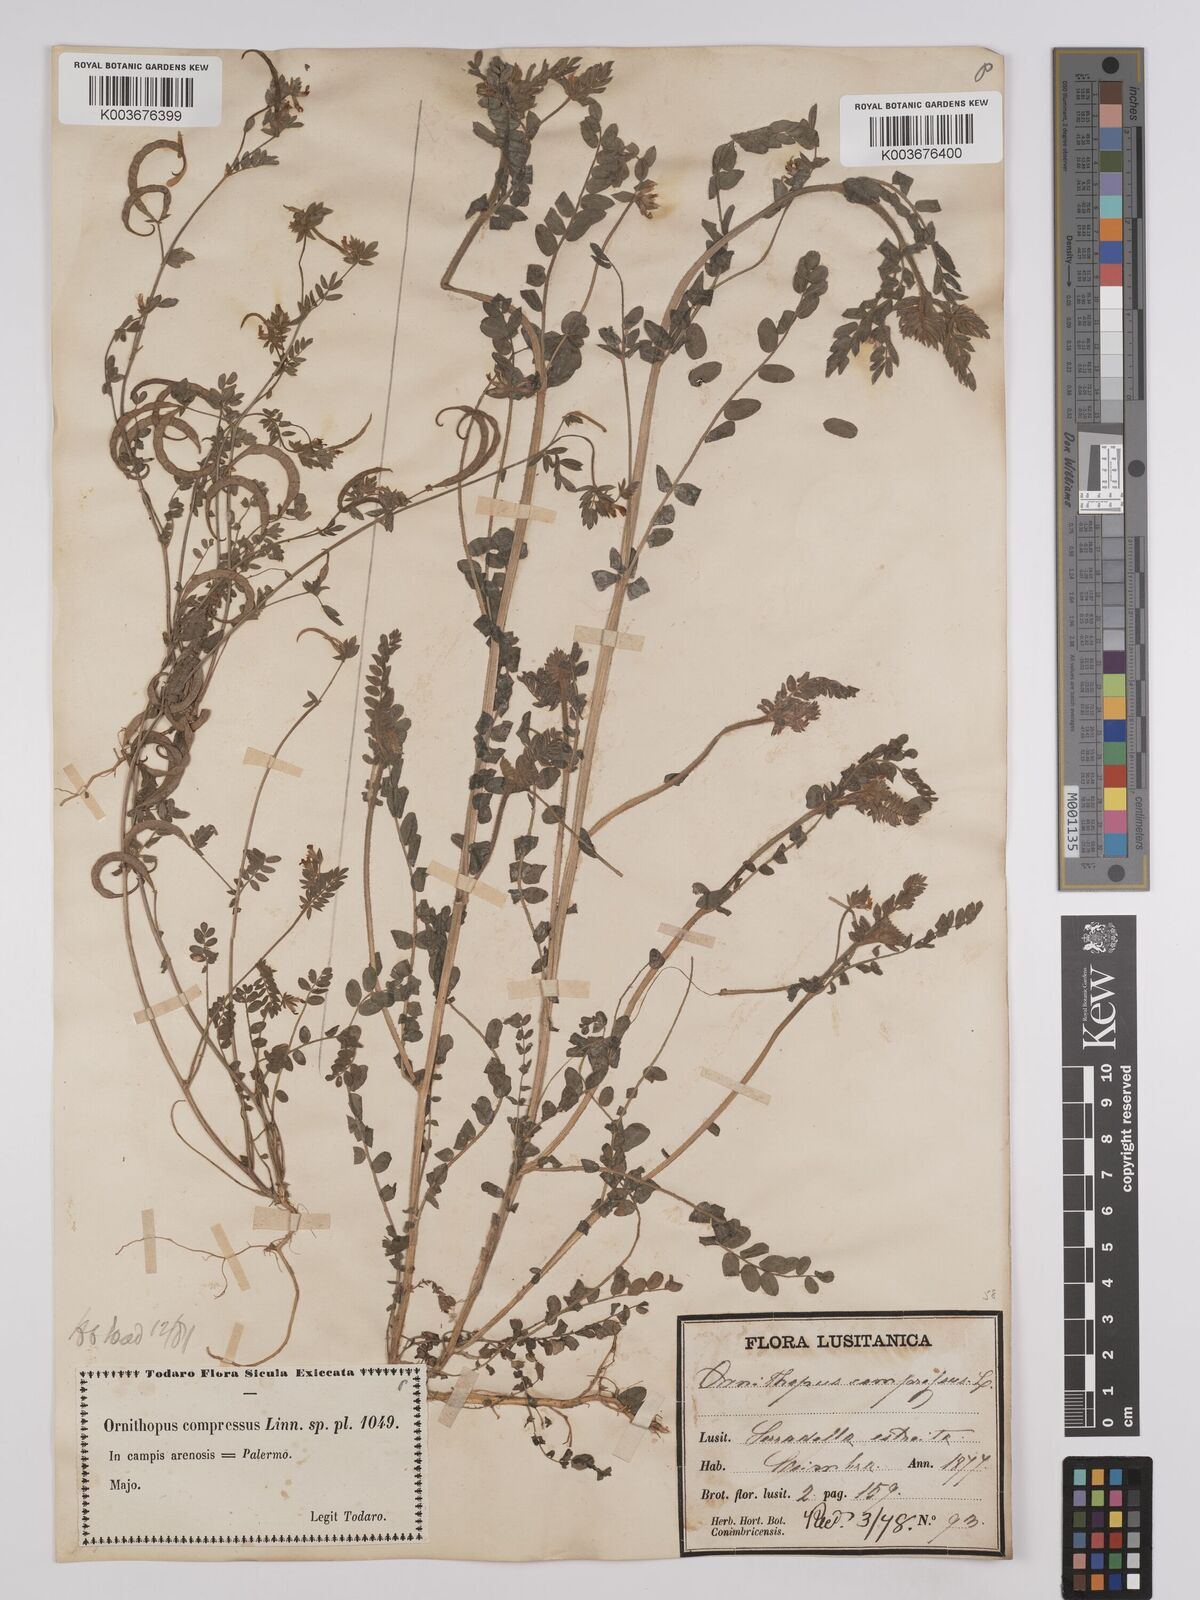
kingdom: Plantae
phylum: Tracheophyta
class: Magnoliopsida
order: Fabales
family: Fabaceae
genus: Ornithopus
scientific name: Ornithopus compressus
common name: Yellow serradella
